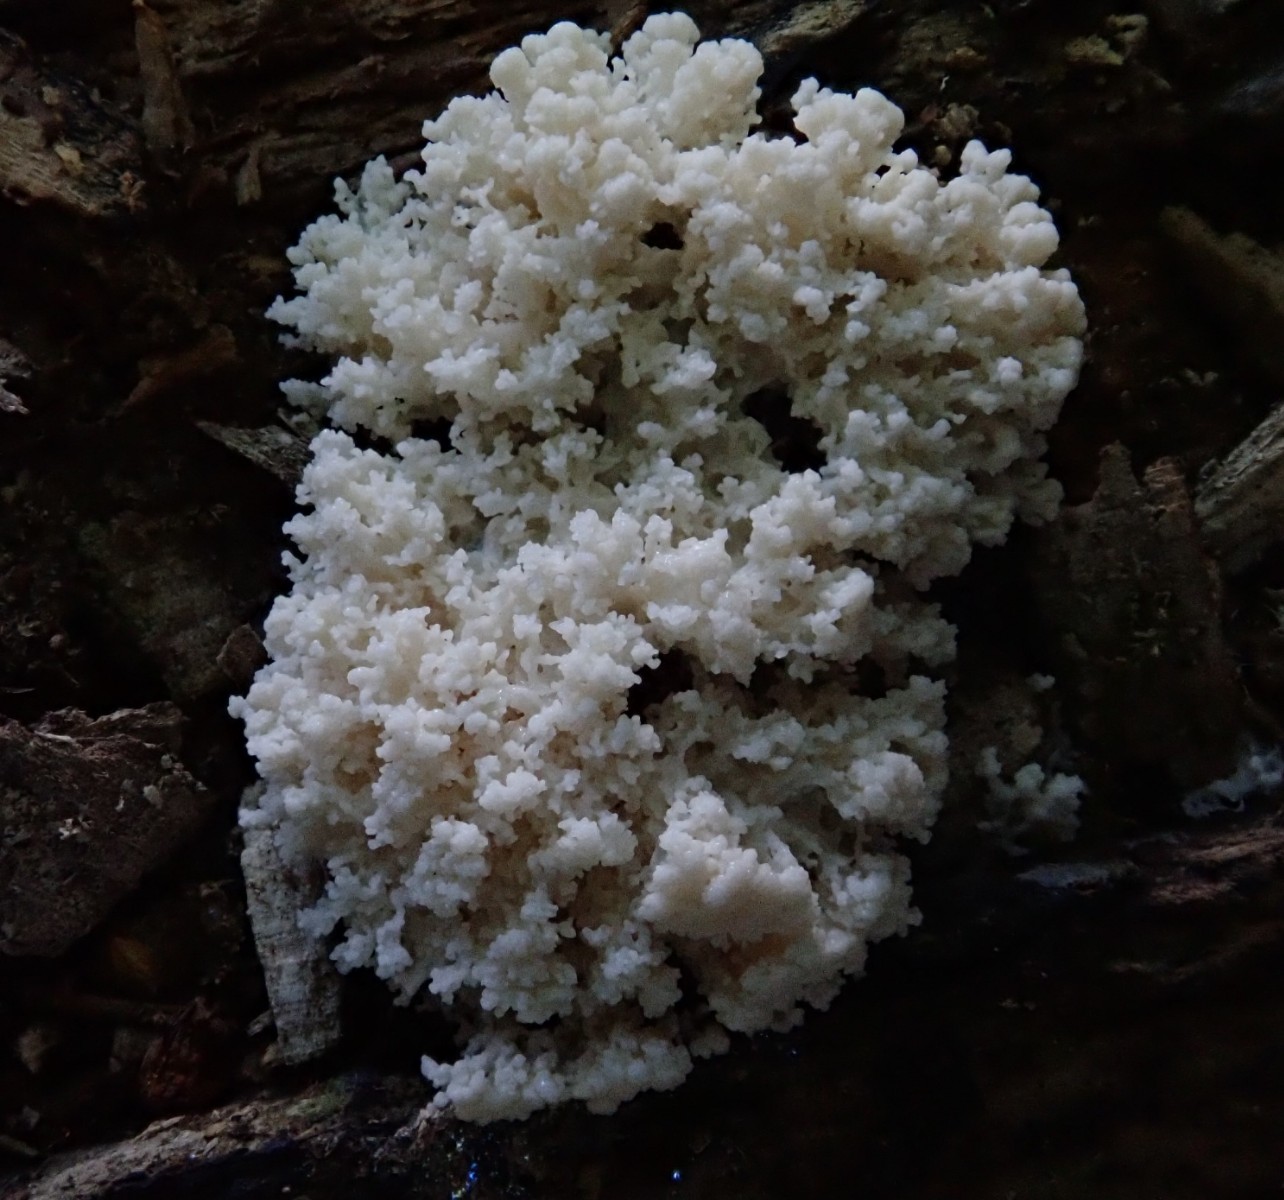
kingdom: Protozoa
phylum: Mycetozoa
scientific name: Mycetozoa
